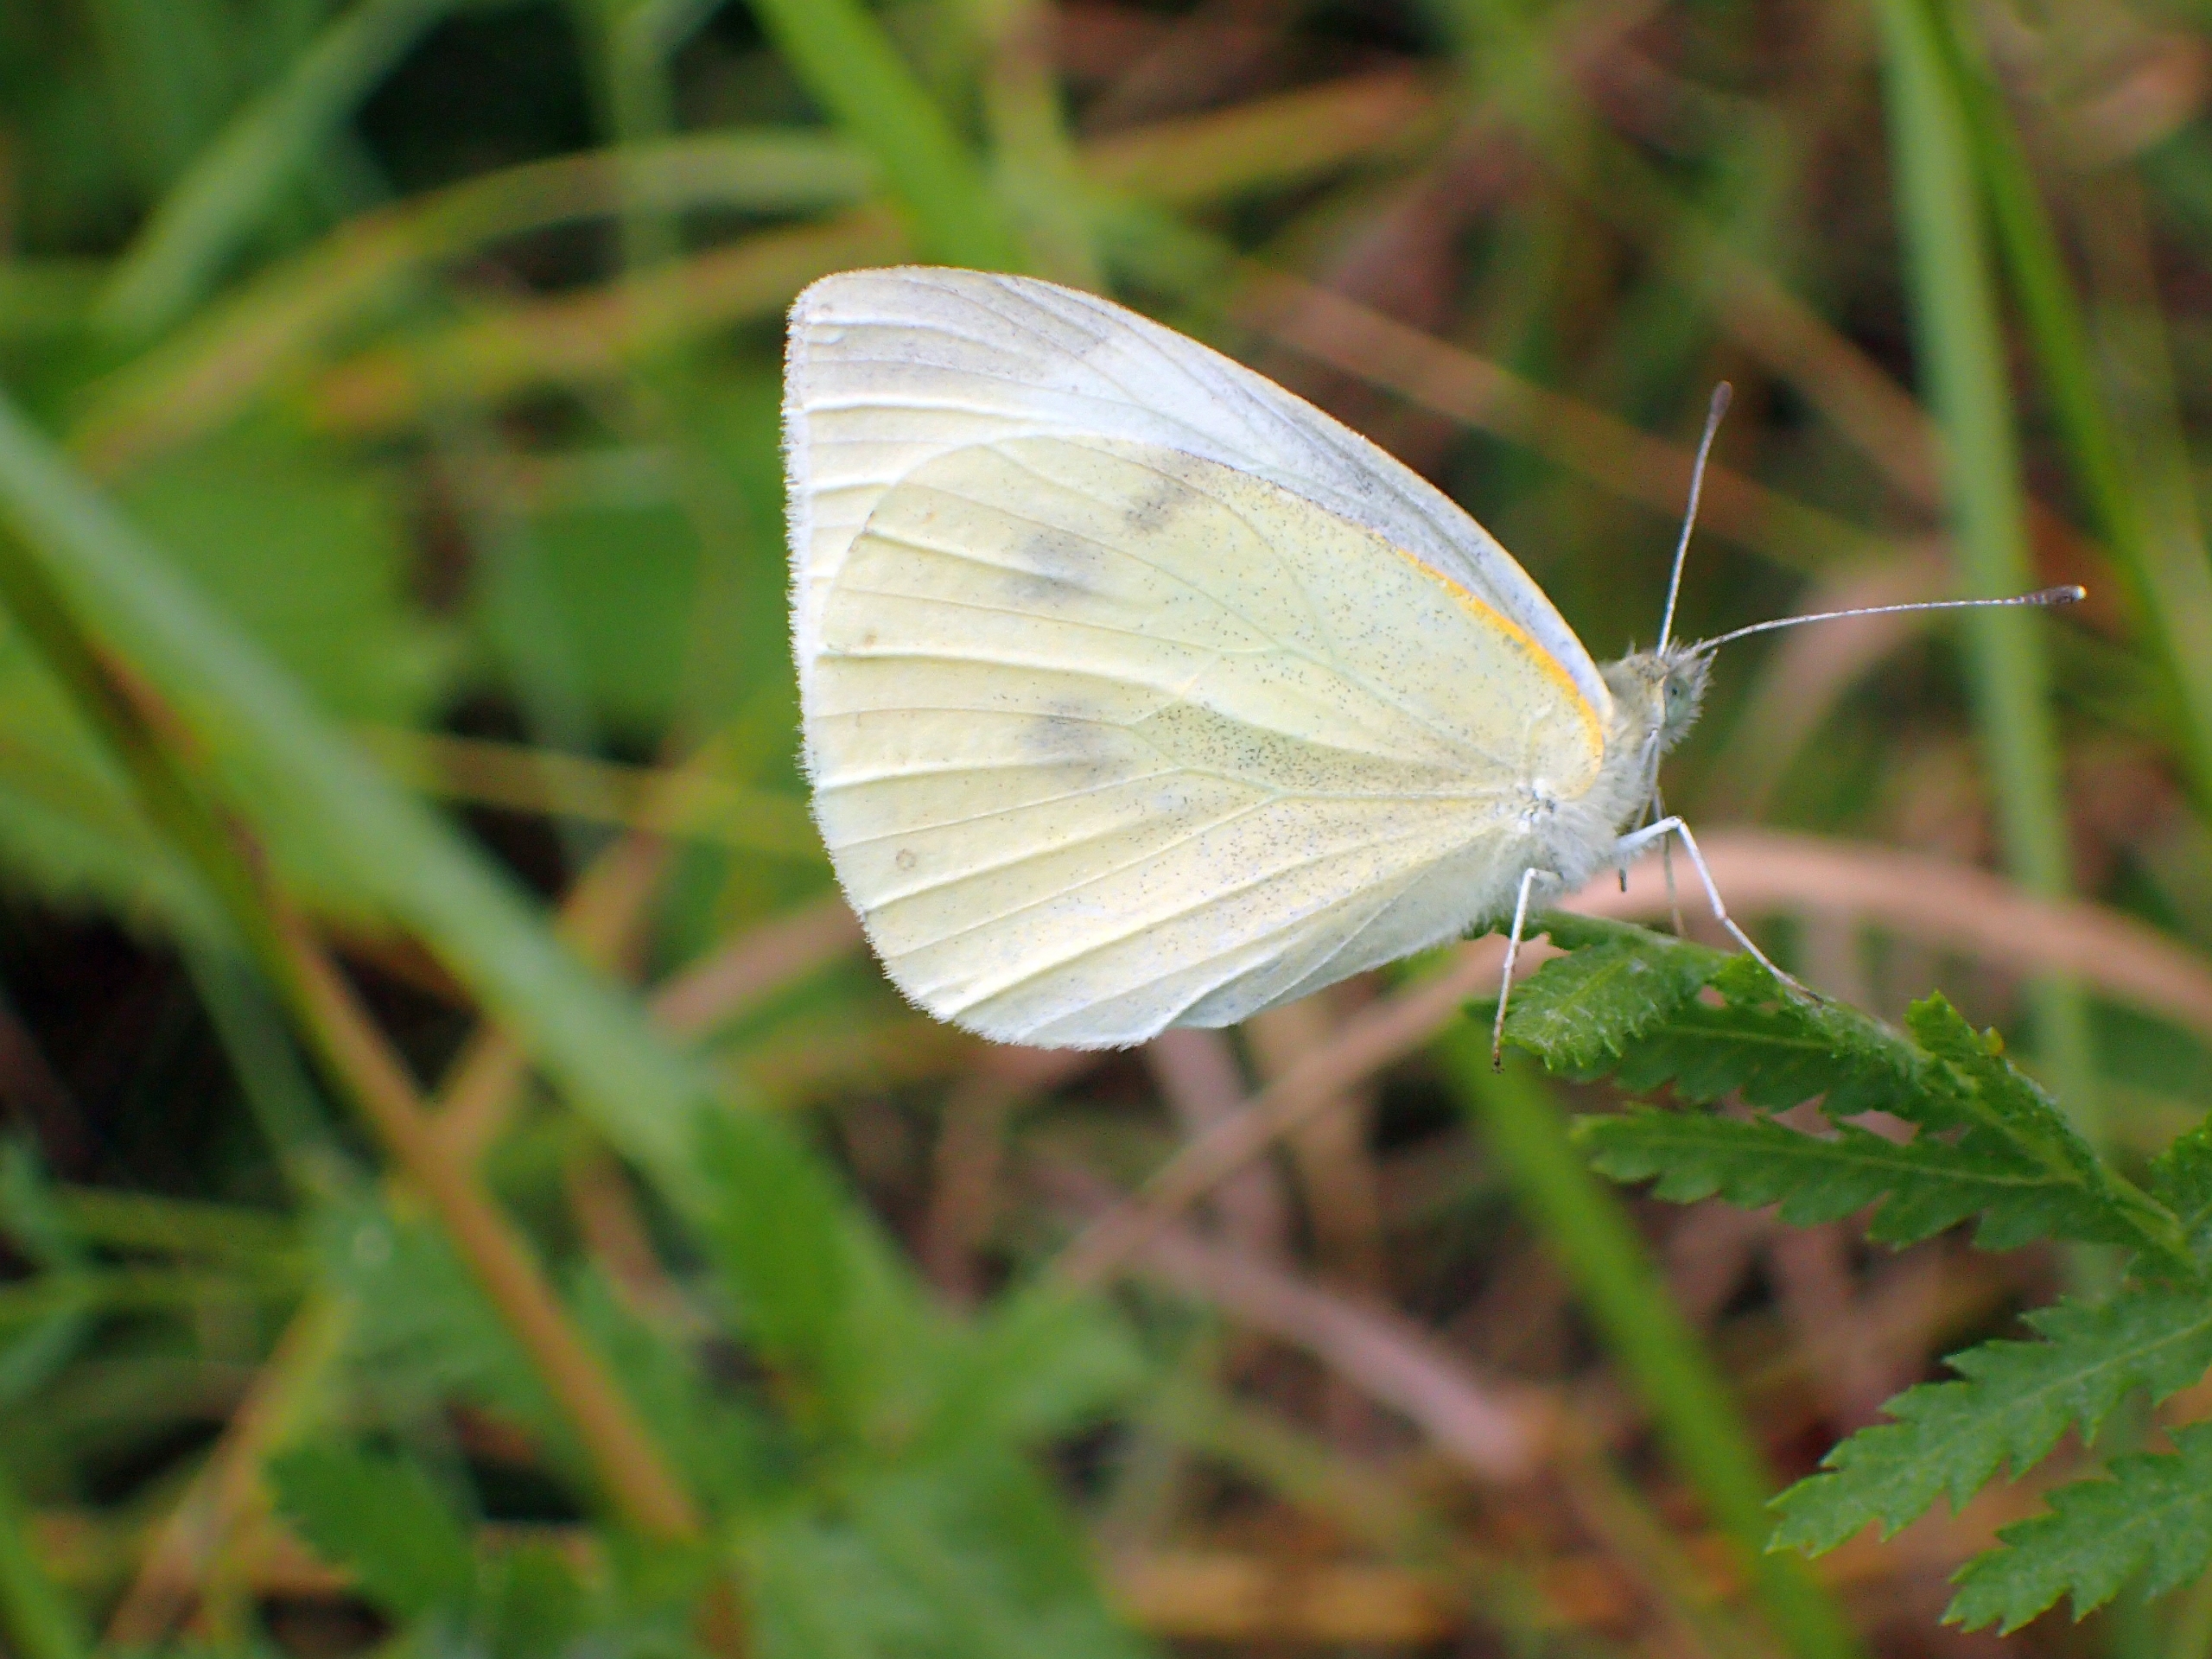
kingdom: Animalia
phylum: Arthropoda
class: Insecta
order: Lepidoptera
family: Pieridae
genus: Pieris
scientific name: Pieris rapae
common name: Lille kålsommerfugl
